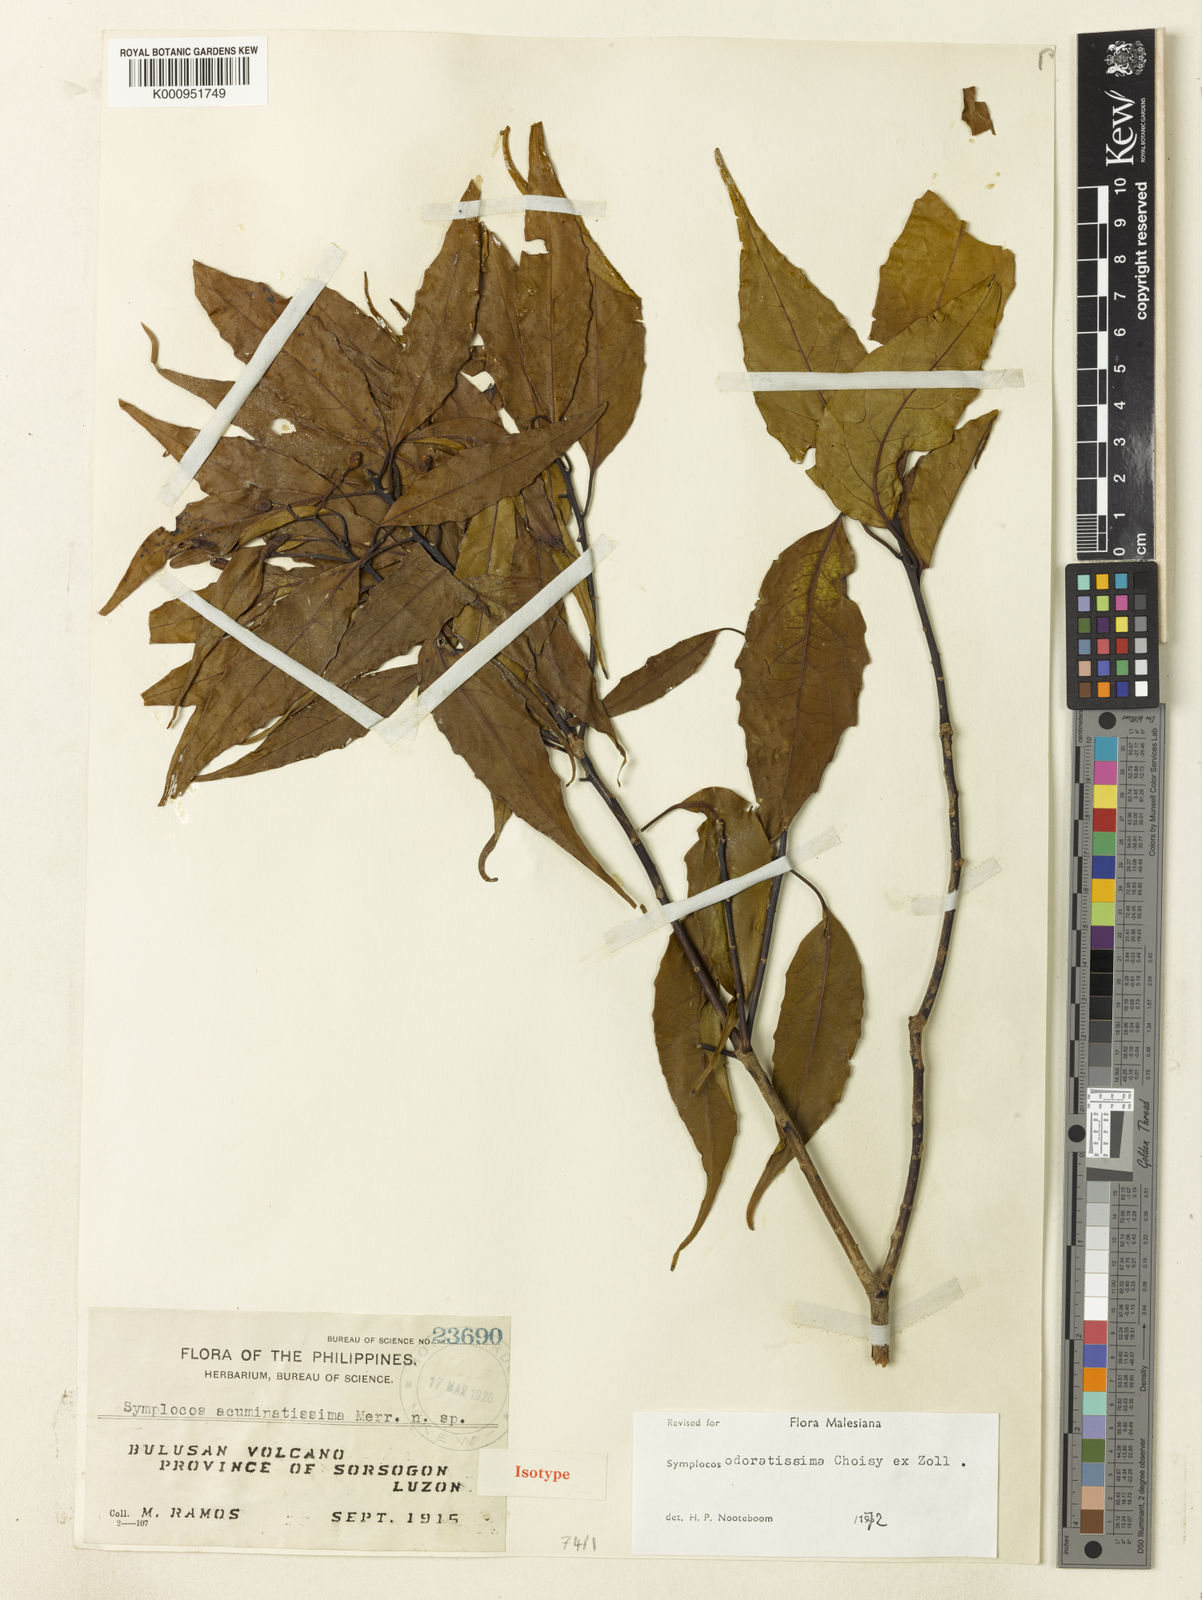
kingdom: Plantae
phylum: Tracheophyta
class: Magnoliopsida
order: Ericales
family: Symplocaceae
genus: Symplocos
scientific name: Symplocos odoratissima
